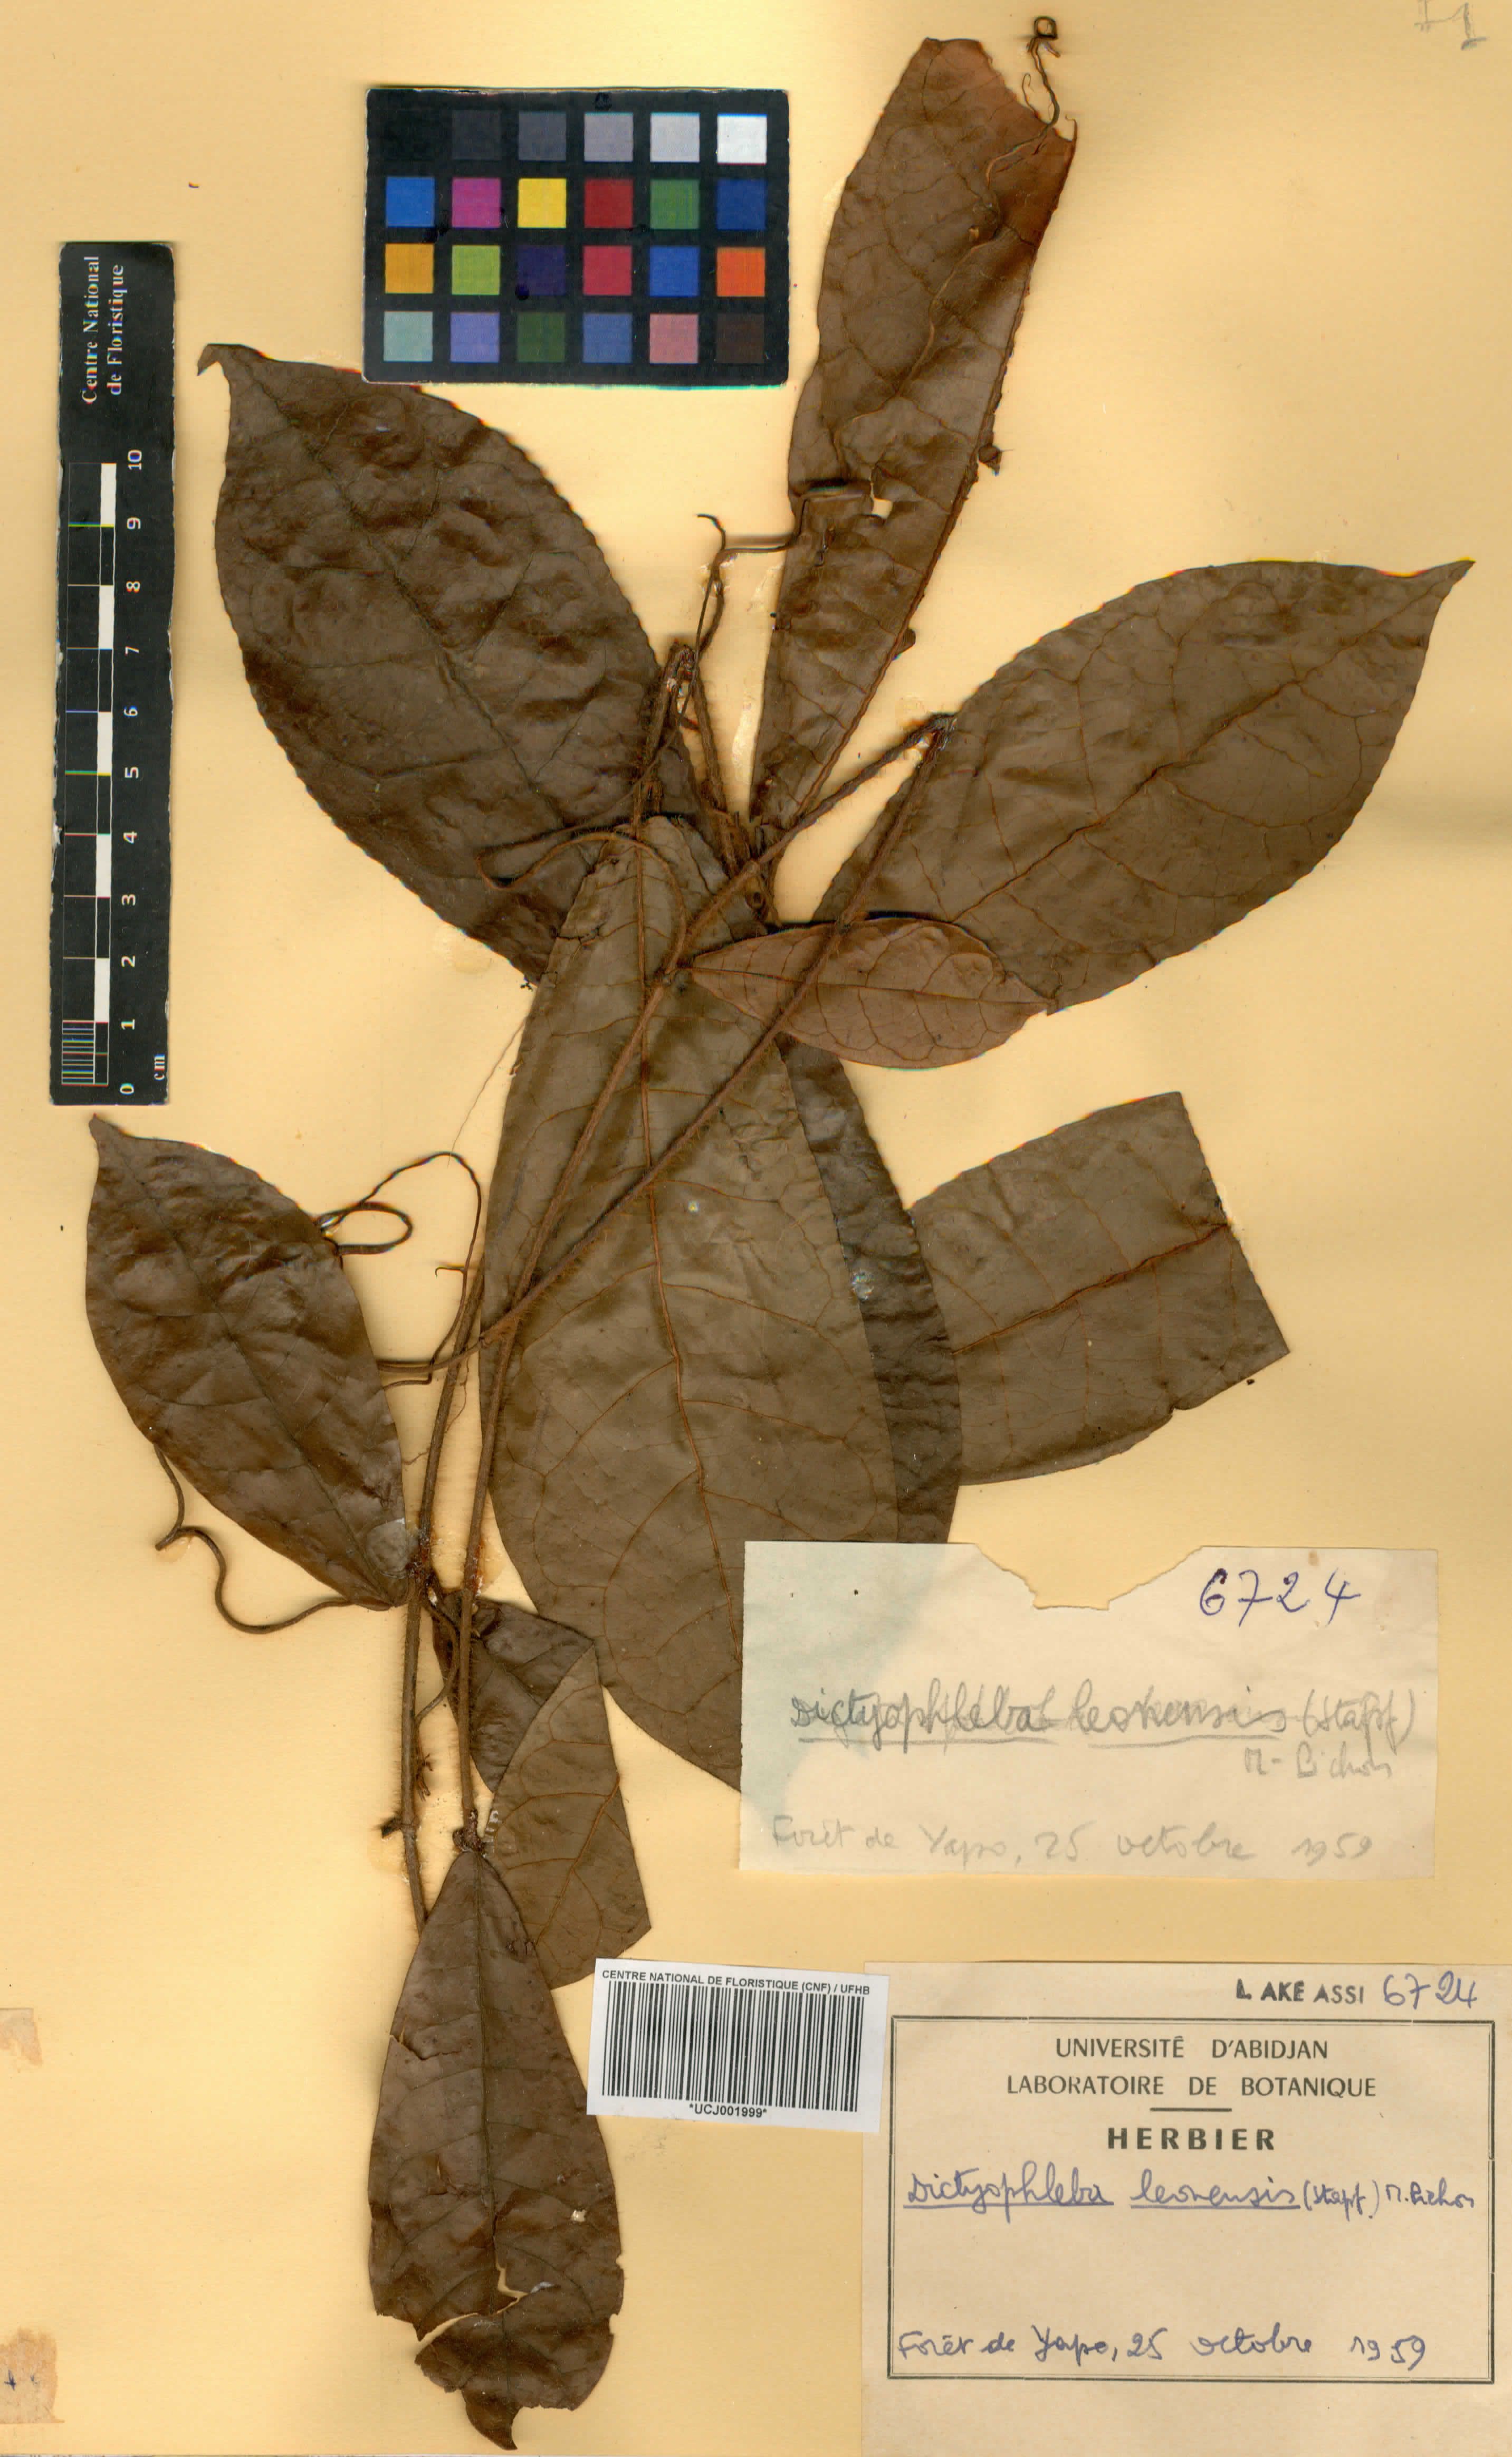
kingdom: Plantae
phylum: Tracheophyta
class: Magnoliopsida
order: Gentianales
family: Apocynaceae
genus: Dictyophleba
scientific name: Dictyophleba leonensis
